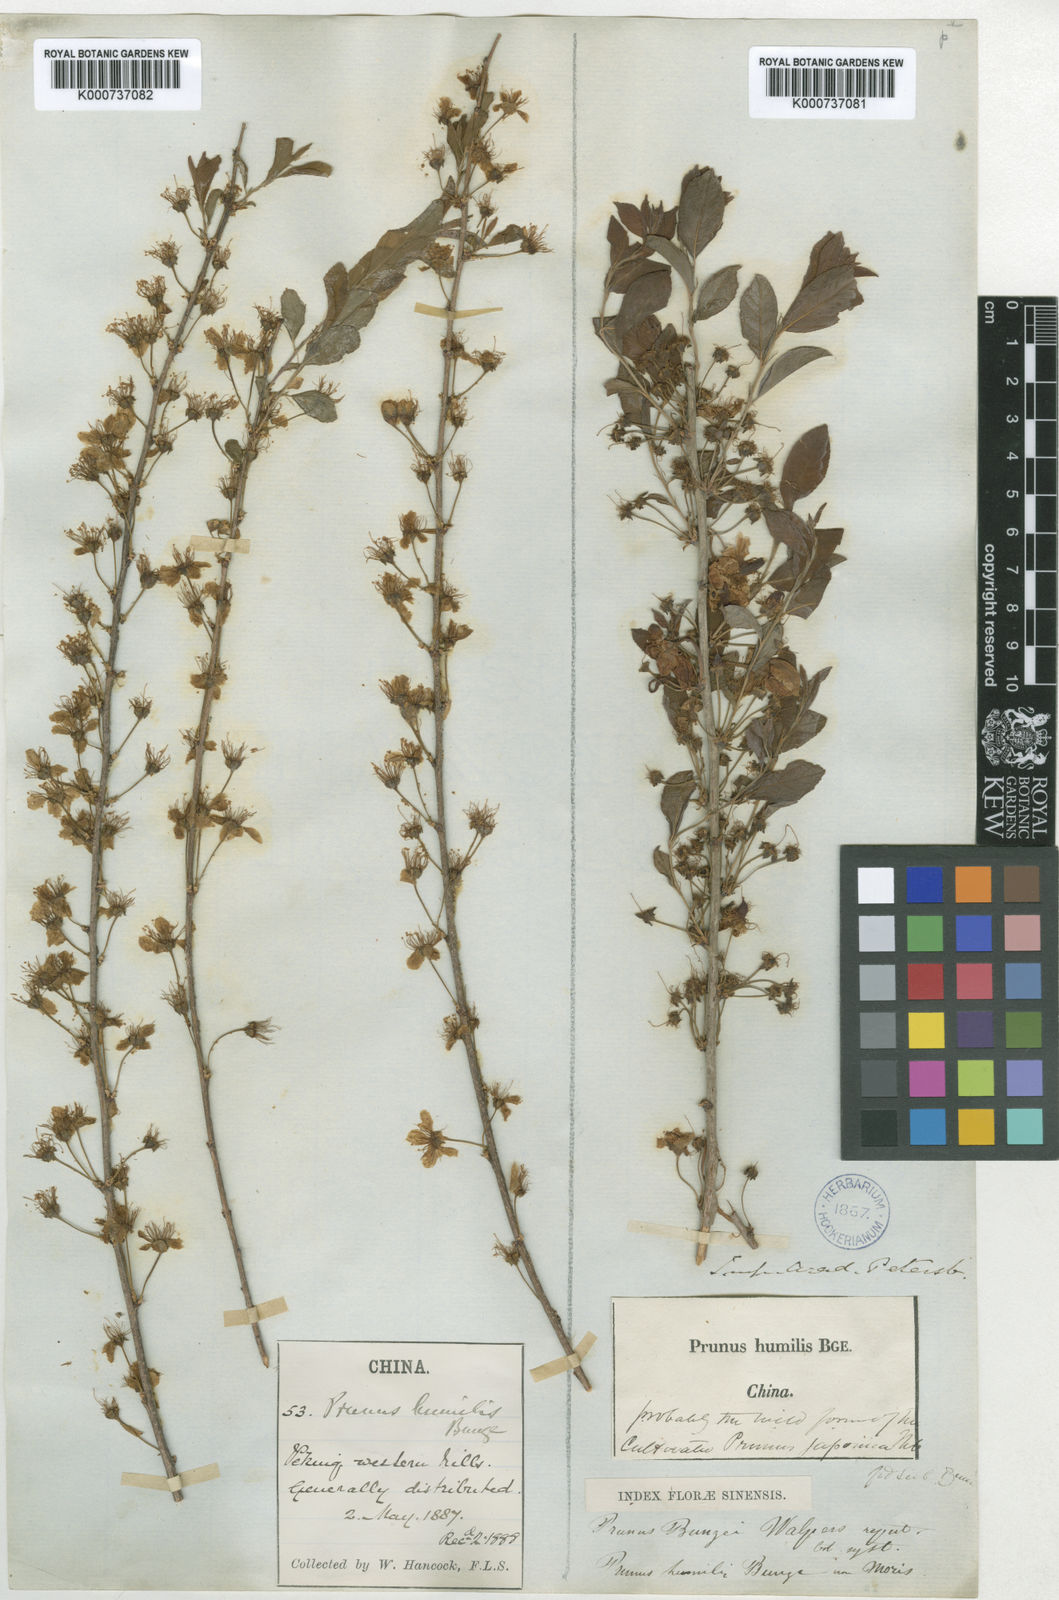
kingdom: Plantae
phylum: Tracheophyta
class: Magnoliopsida
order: Rosales
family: Rosaceae
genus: Prunus
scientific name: Prunus humilis
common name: Humble bush cherry
